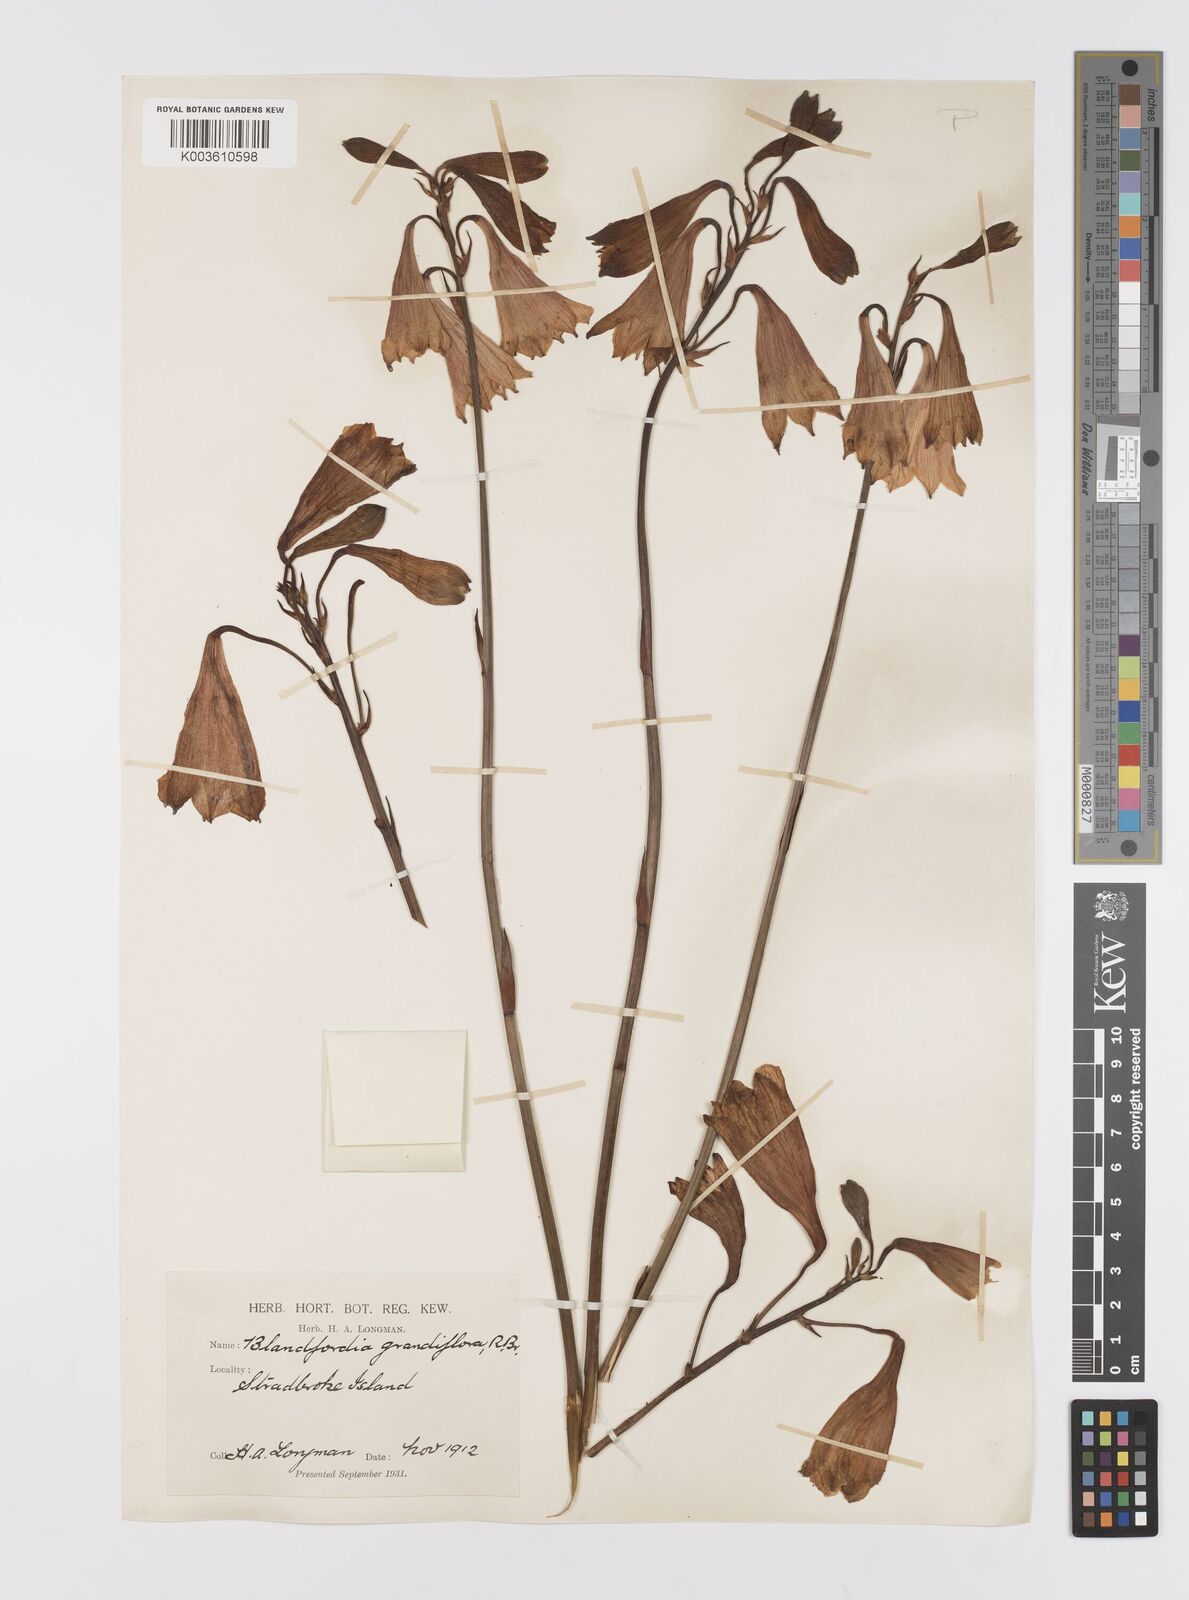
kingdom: Plantae
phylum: Tracheophyta
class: Liliopsida
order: Asparagales
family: Blandfordiaceae
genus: Blandfordia
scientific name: Blandfordia grandiflora
